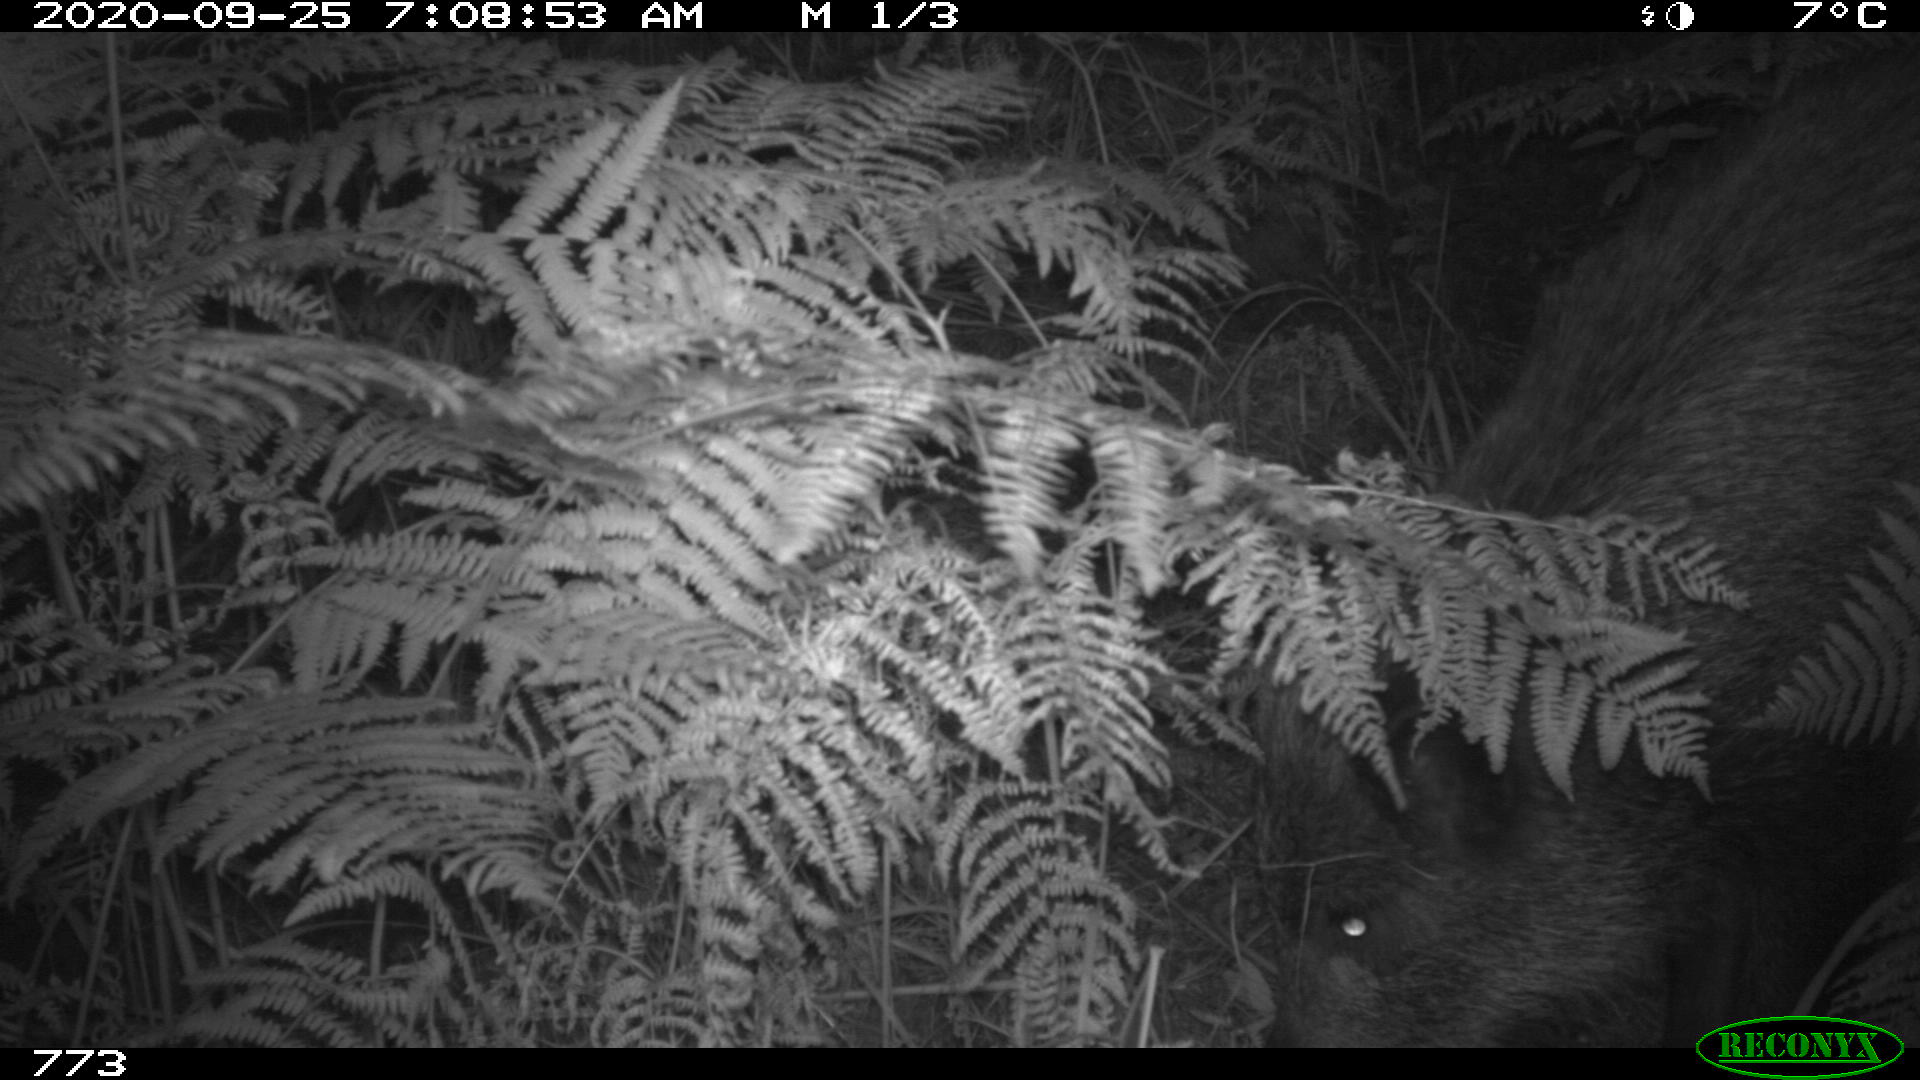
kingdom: Animalia
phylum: Chordata
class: Mammalia
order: Artiodactyla
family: Suidae
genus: Sus
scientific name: Sus scrofa
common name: Wild boar
